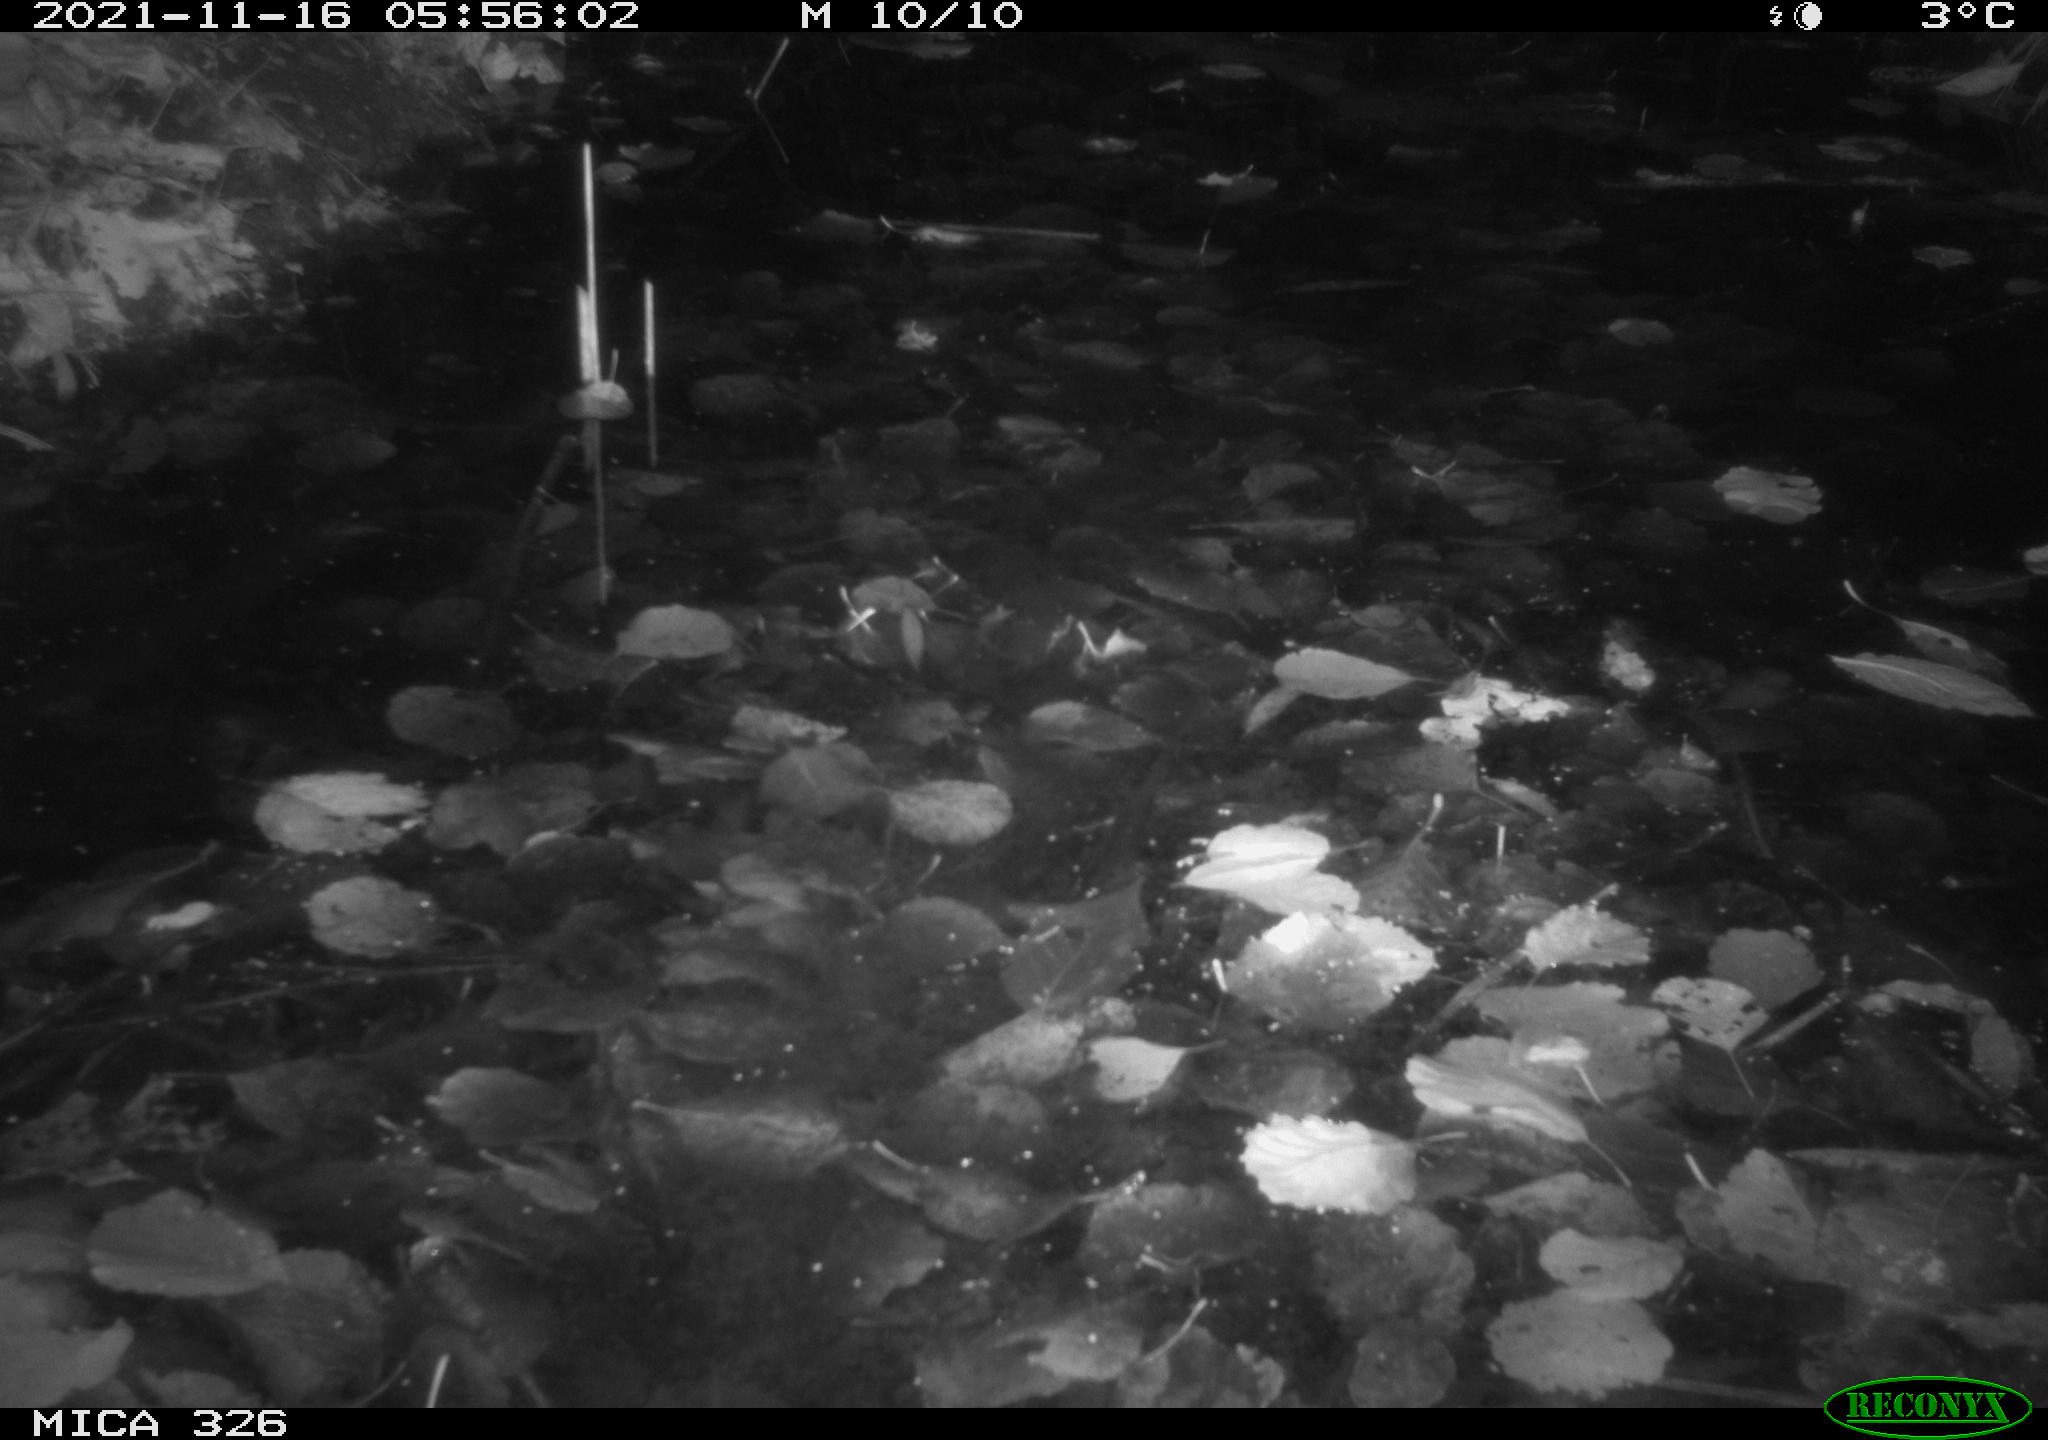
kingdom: Animalia
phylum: Chordata
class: Mammalia
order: Rodentia
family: Myocastoridae
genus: Myocastor
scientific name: Myocastor coypus
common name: Coypu
